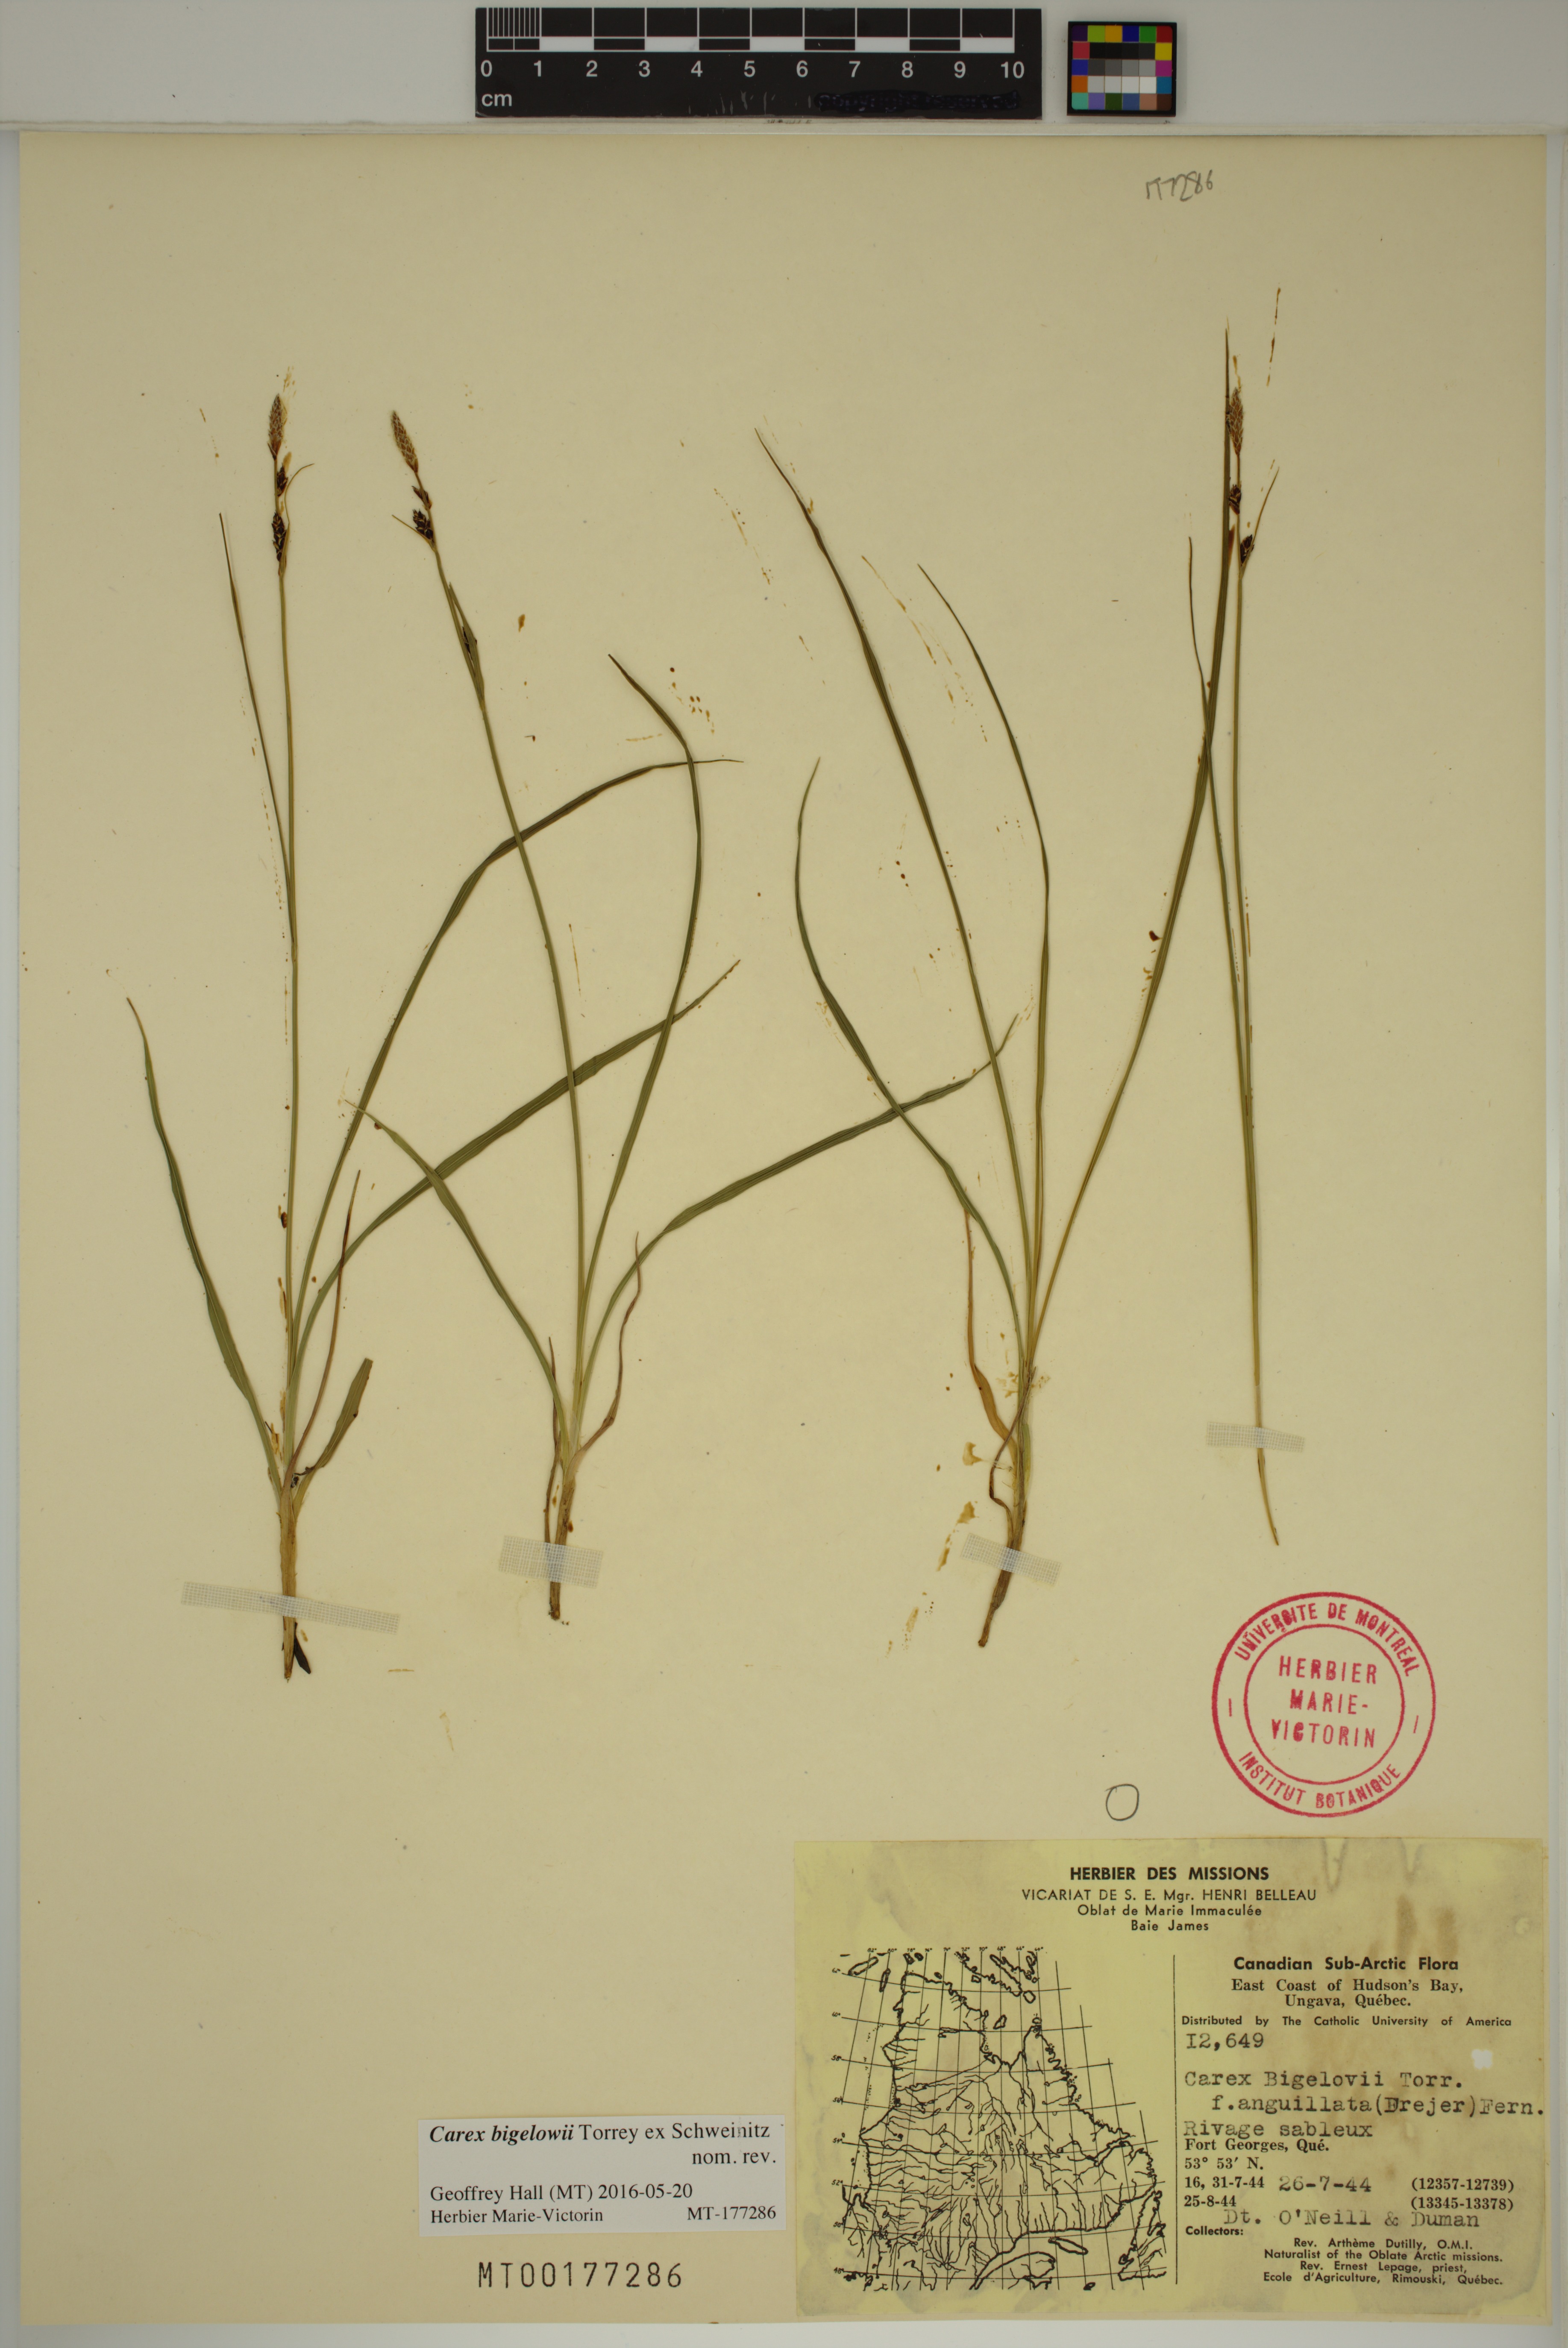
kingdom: Plantae
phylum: Tracheophyta
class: Liliopsida
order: Poales
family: Cyperaceae
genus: Carex
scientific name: Carex bigelowii
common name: Stiff sedge
